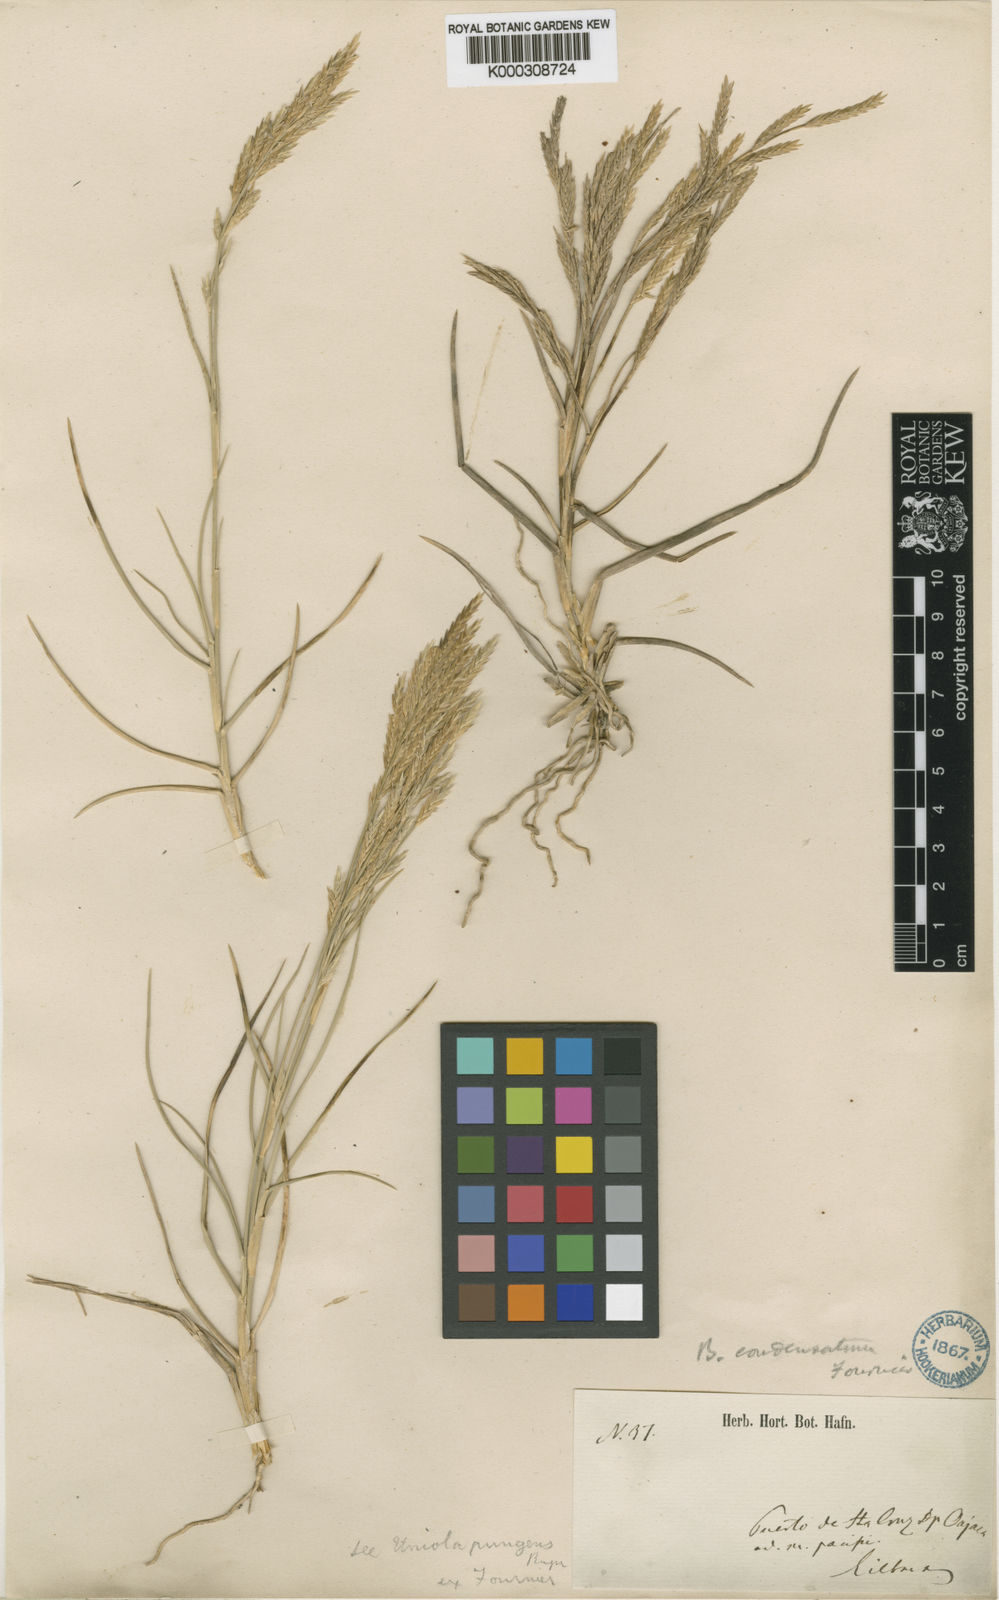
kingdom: Plantae
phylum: Tracheophyta
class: Liliopsida
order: Poales
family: Poaceae
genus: Jouvea
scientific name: Jouvea pilosa
